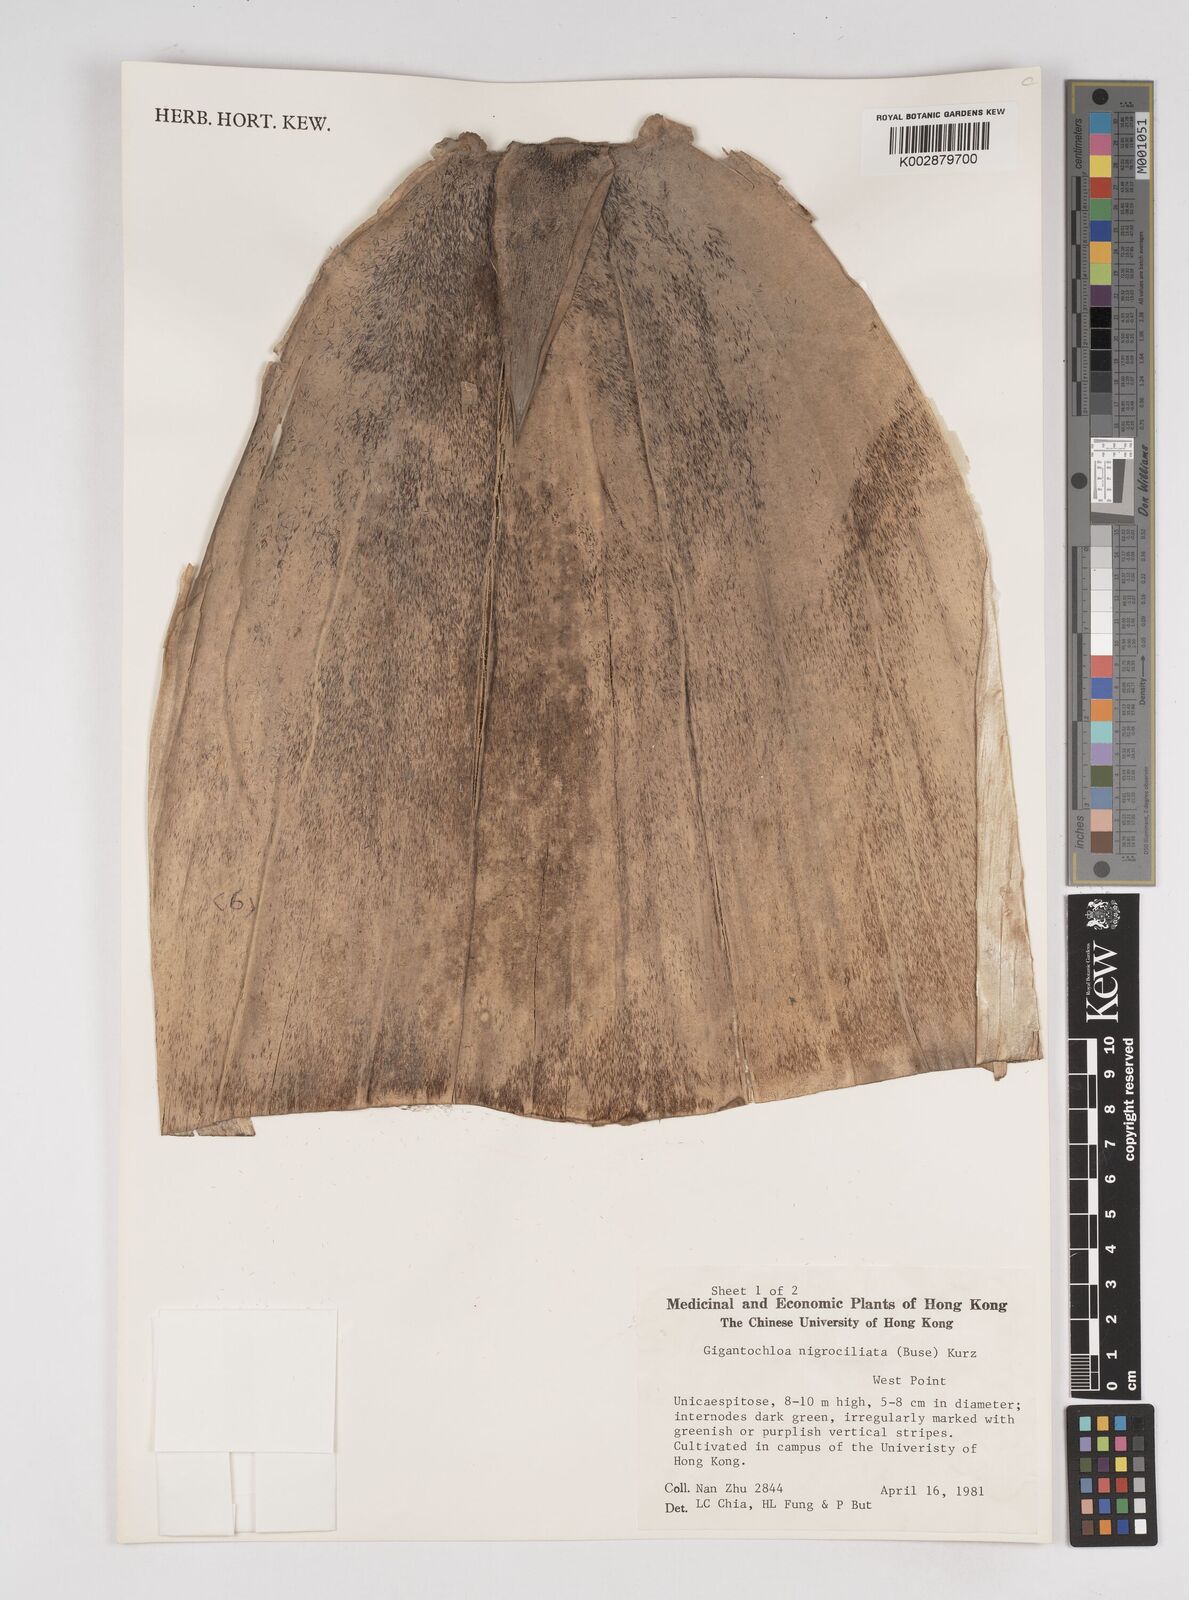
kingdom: Plantae
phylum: Tracheophyta
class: Liliopsida
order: Poales
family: Poaceae
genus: Gigantochloa
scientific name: Gigantochloa nigrociliata
